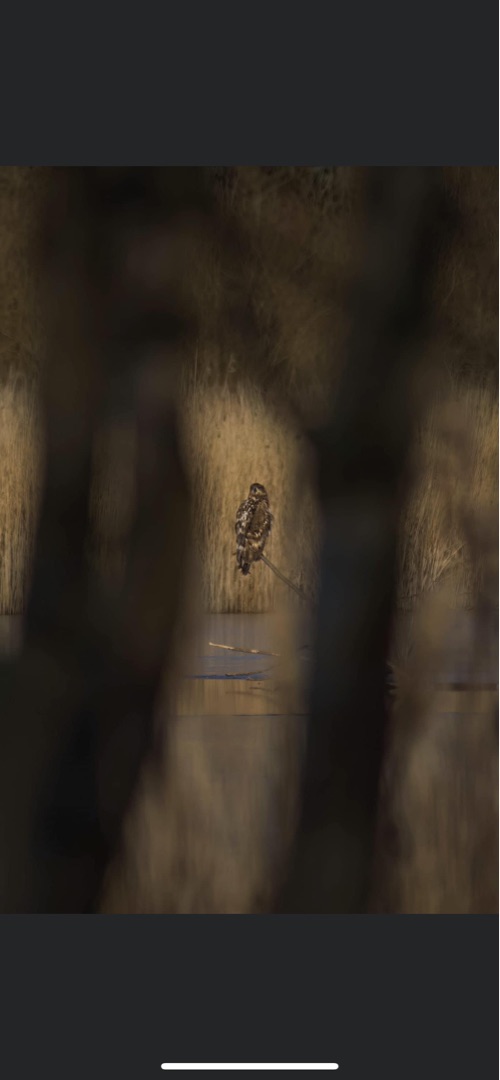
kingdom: Animalia
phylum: Chordata
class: Aves
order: Accipitriformes
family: Accipitridae
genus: Haliaeetus
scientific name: Haliaeetus albicilla
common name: Havørn
